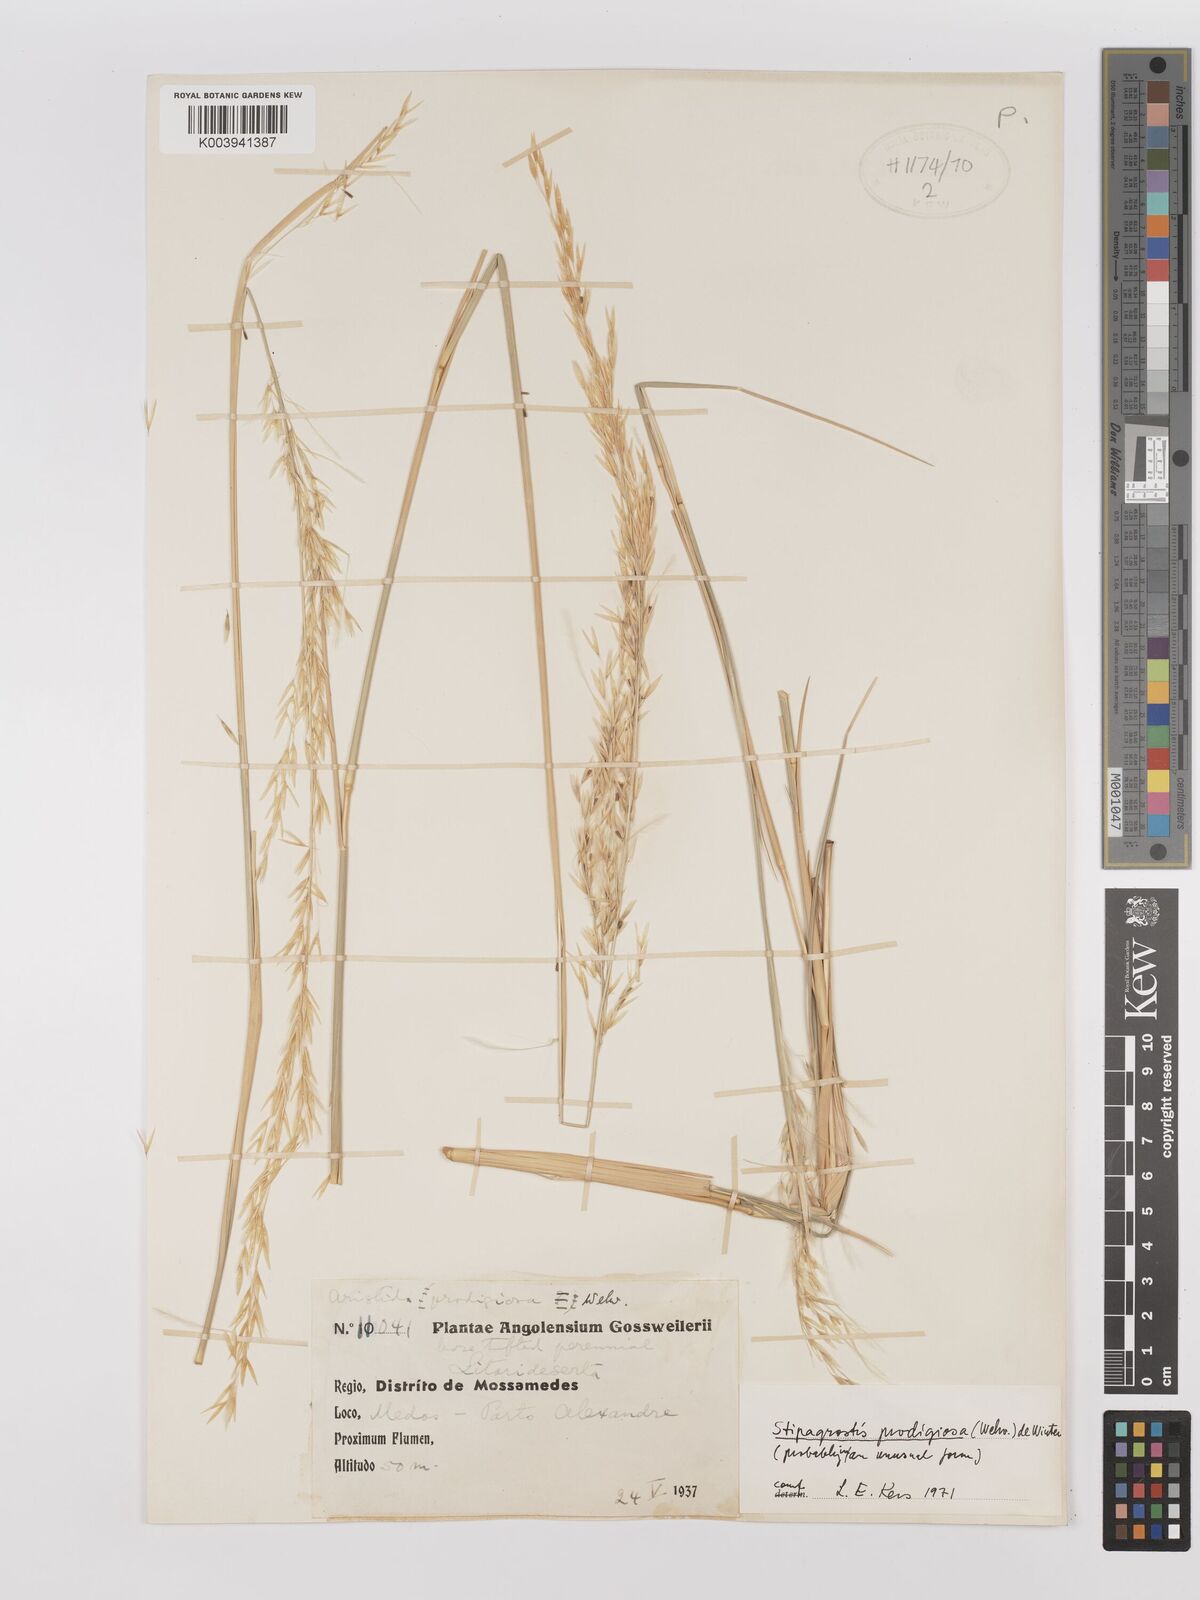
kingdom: Plantae
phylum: Tracheophyta
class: Liliopsida
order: Poales
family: Poaceae
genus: Stipagrostis
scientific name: Stipagrostis prodigiosa
